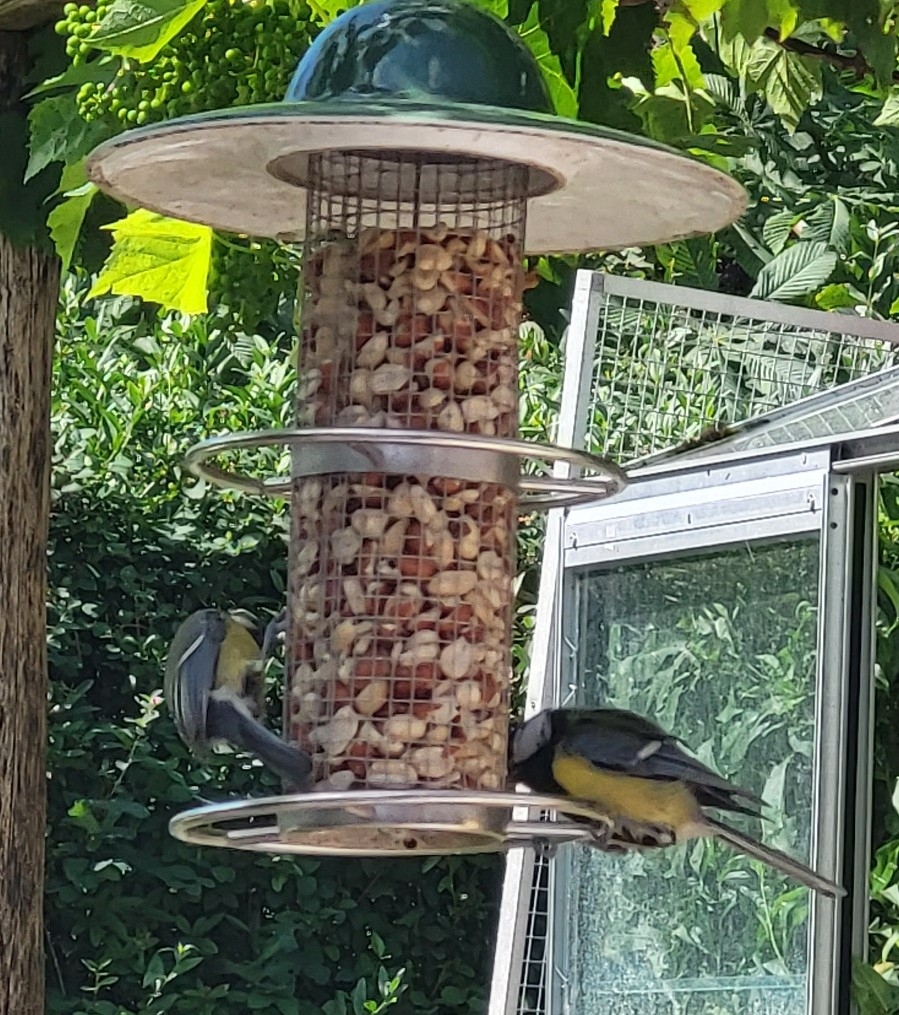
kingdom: Animalia
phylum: Chordata
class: Aves
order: Passeriformes
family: Paridae
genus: Parus
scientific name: Parus major
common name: Musvit
